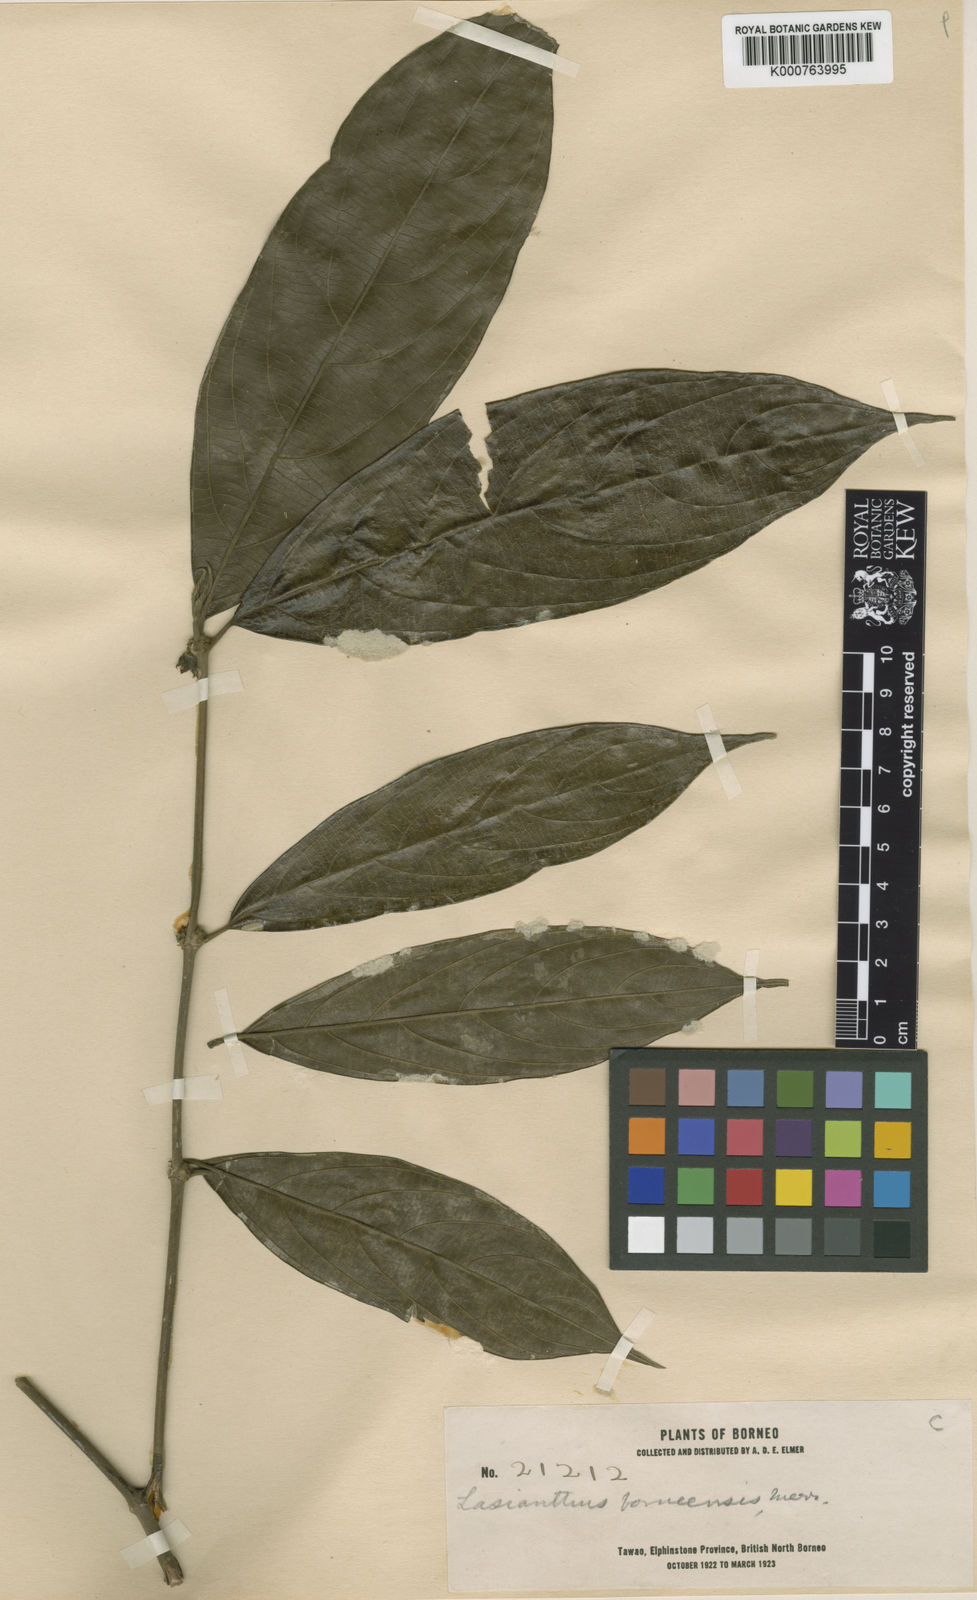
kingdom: Plantae
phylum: Tracheophyta
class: Magnoliopsida
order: Gentianales
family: Rubiaceae
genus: Lasianthus
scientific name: Lasianthus borneensis
